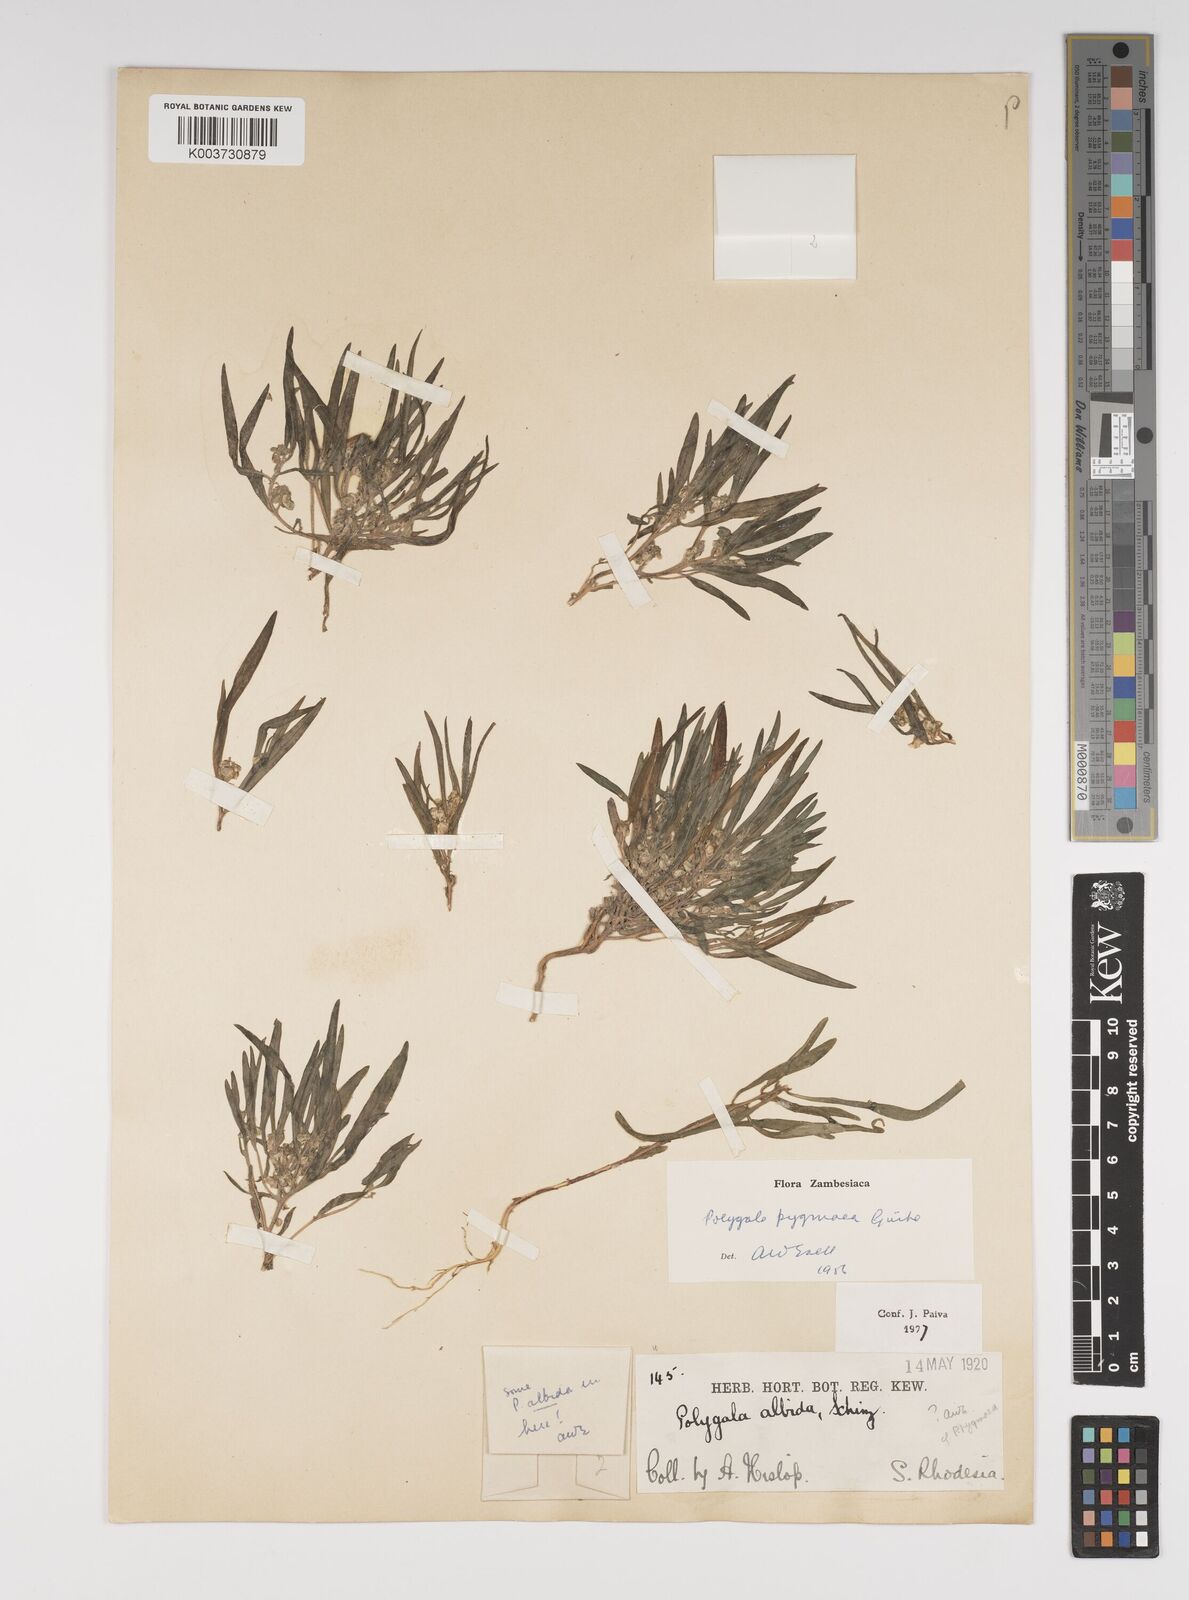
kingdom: Plantae
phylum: Tracheophyta
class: Magnoliopsida
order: Fabales
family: Polygalaceae
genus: Polygala
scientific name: Polygala welwitschii
